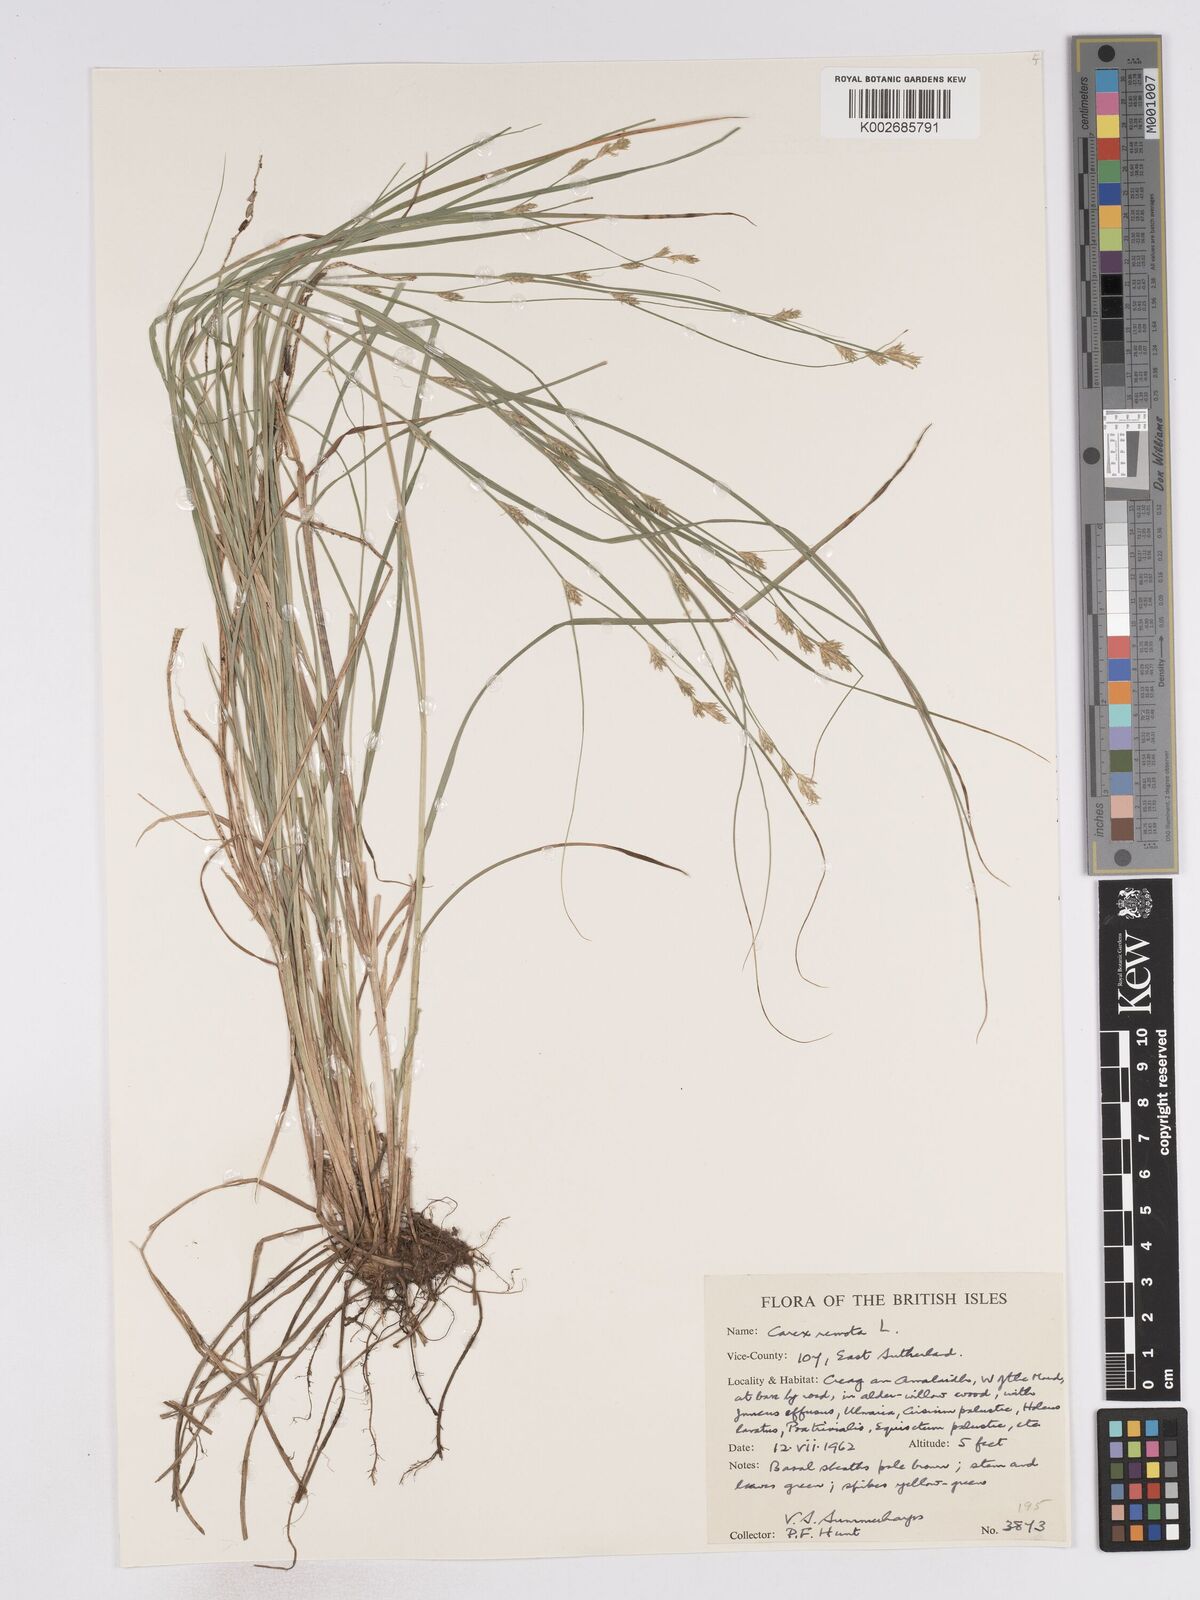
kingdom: Plantae
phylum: Tracheophyta
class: Liliopsida
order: Poales
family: Cyperaceae
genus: Carex
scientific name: Carex remota
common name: Remote sedge
